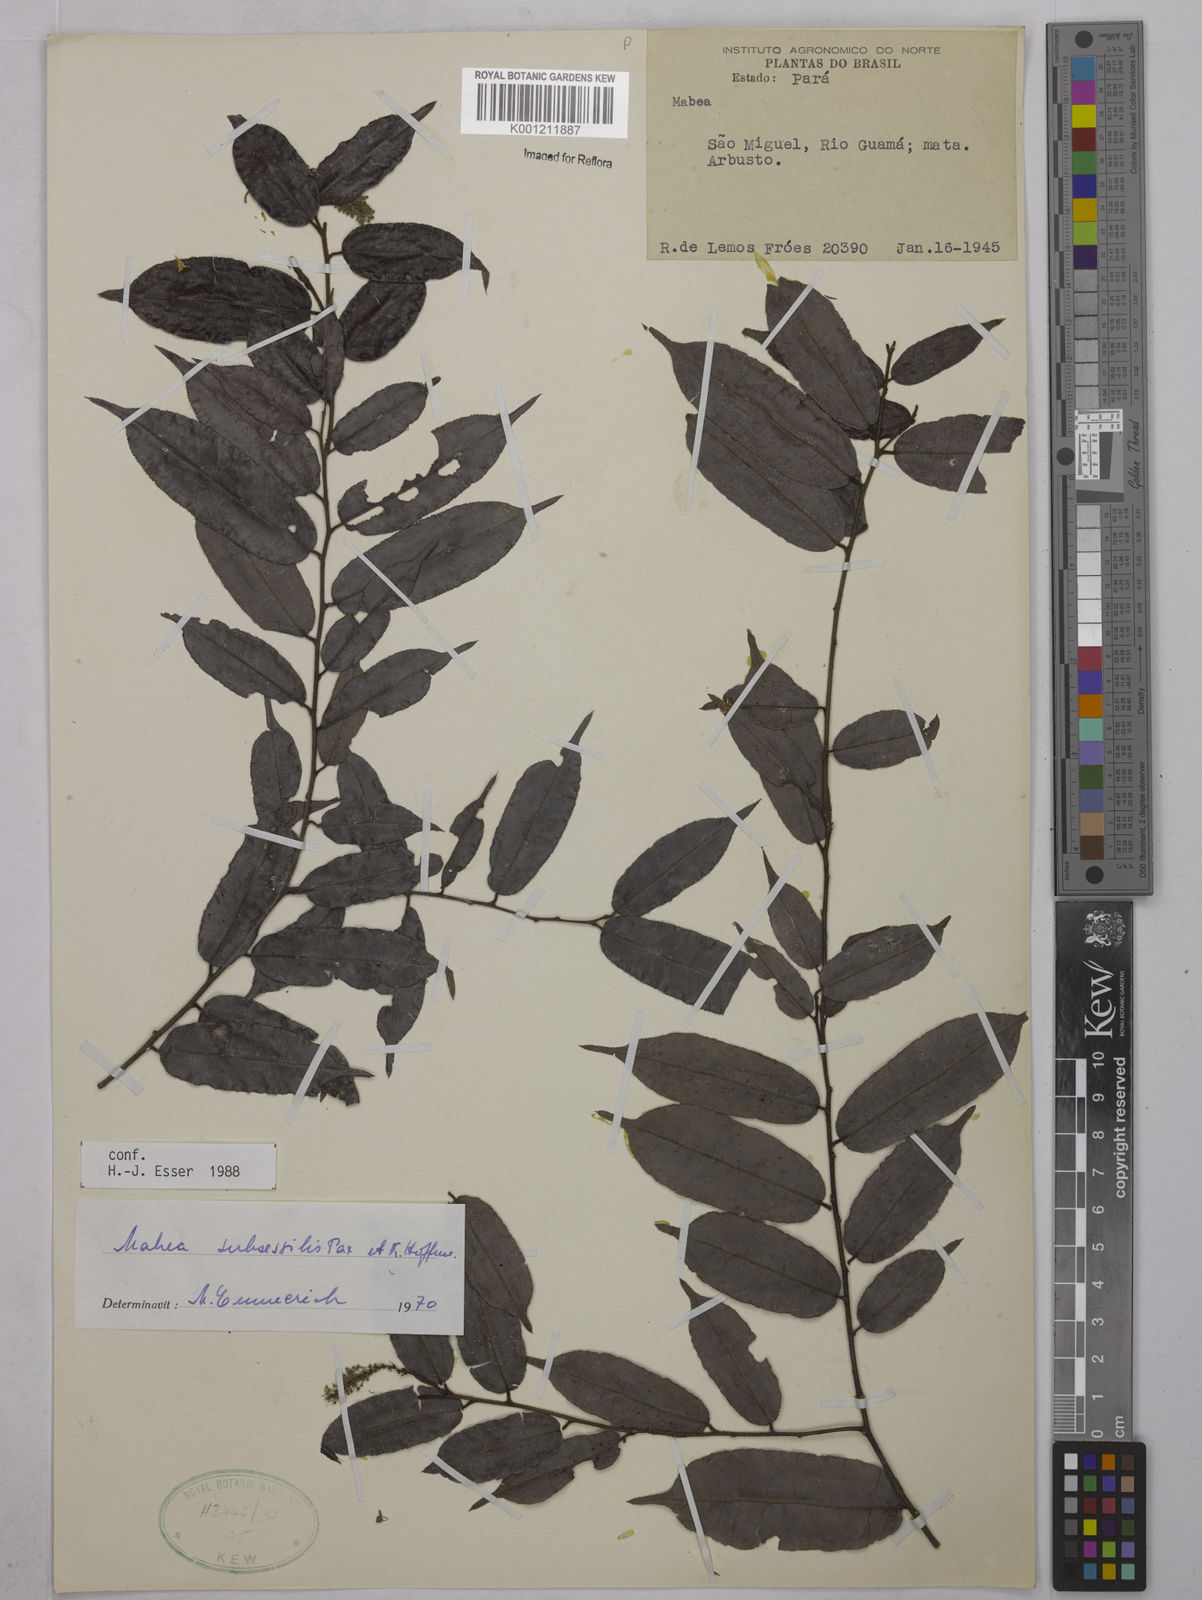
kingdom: Plantae
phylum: Tracheophyta
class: Magnoliopsida
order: Malpighiales
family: Euphorbiaceae
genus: Mabea
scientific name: Mabea subsessilis
